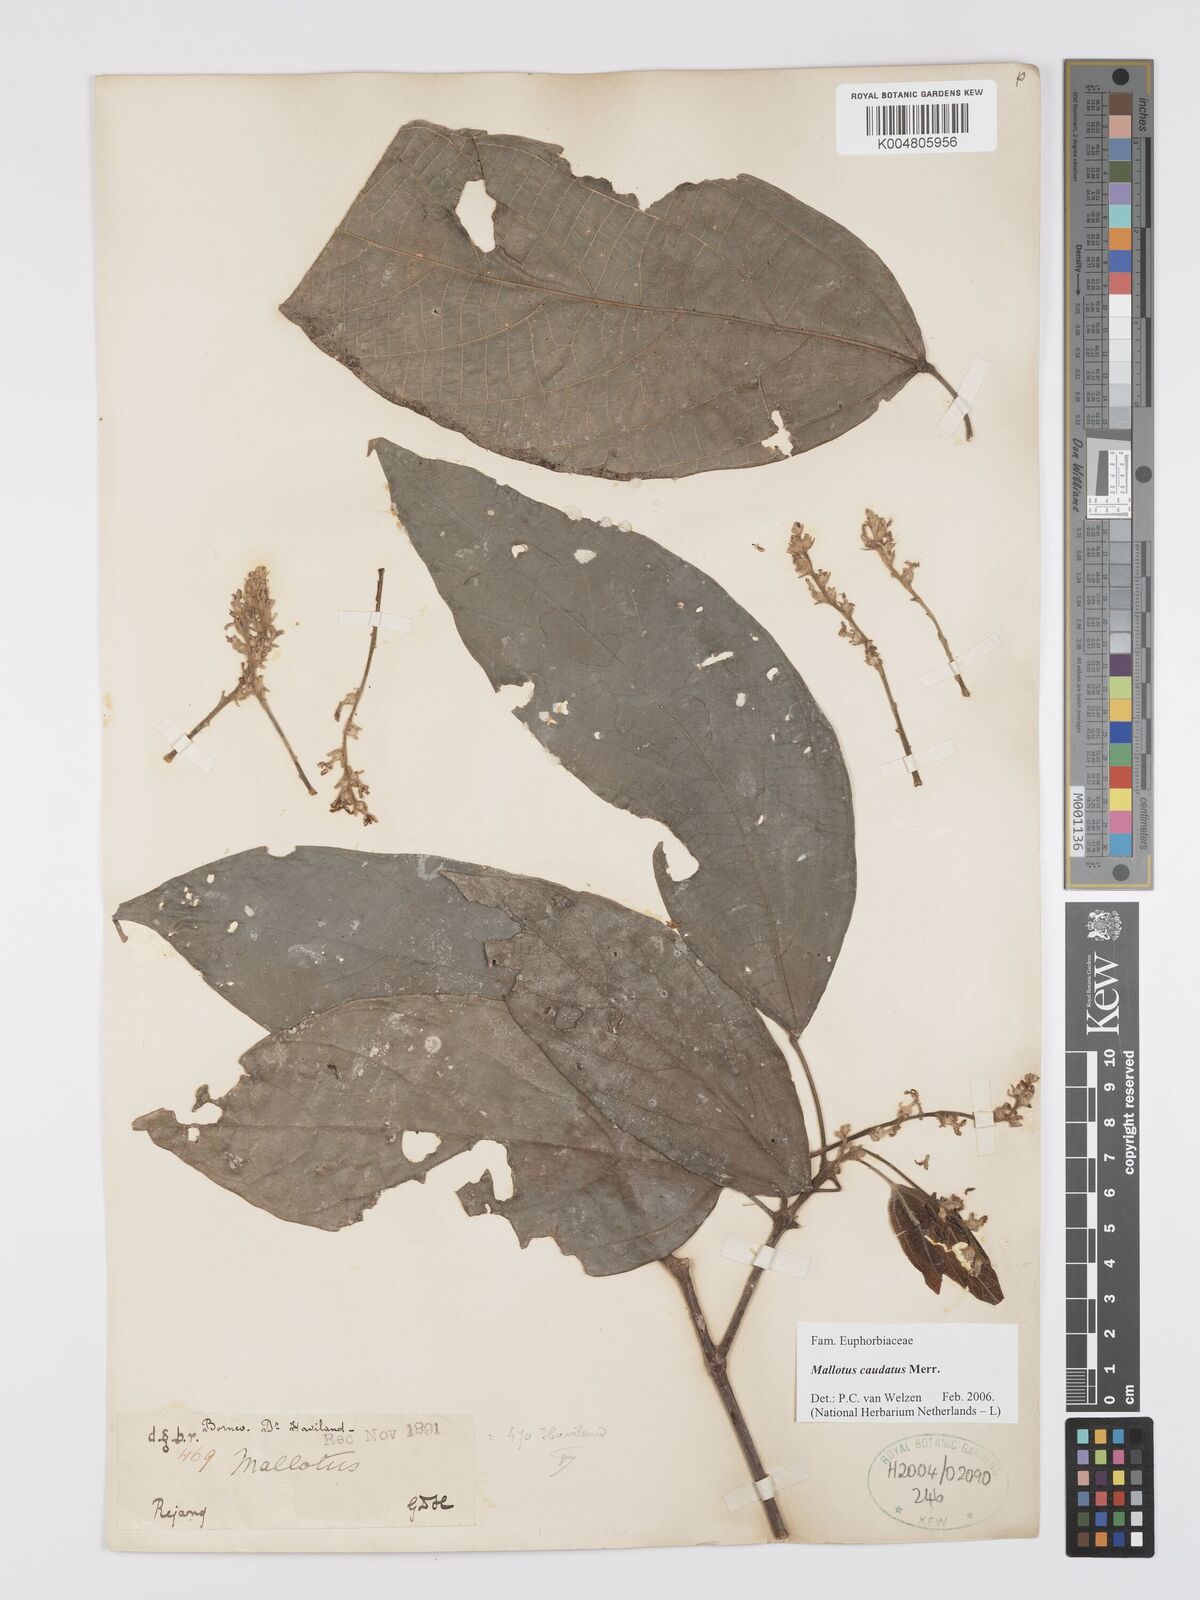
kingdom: Plantae
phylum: Tracheophyta
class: Magnoliopsida
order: Malpighiales
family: Euphorbiaceae
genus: Mallotus
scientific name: Mallotus caudatus
